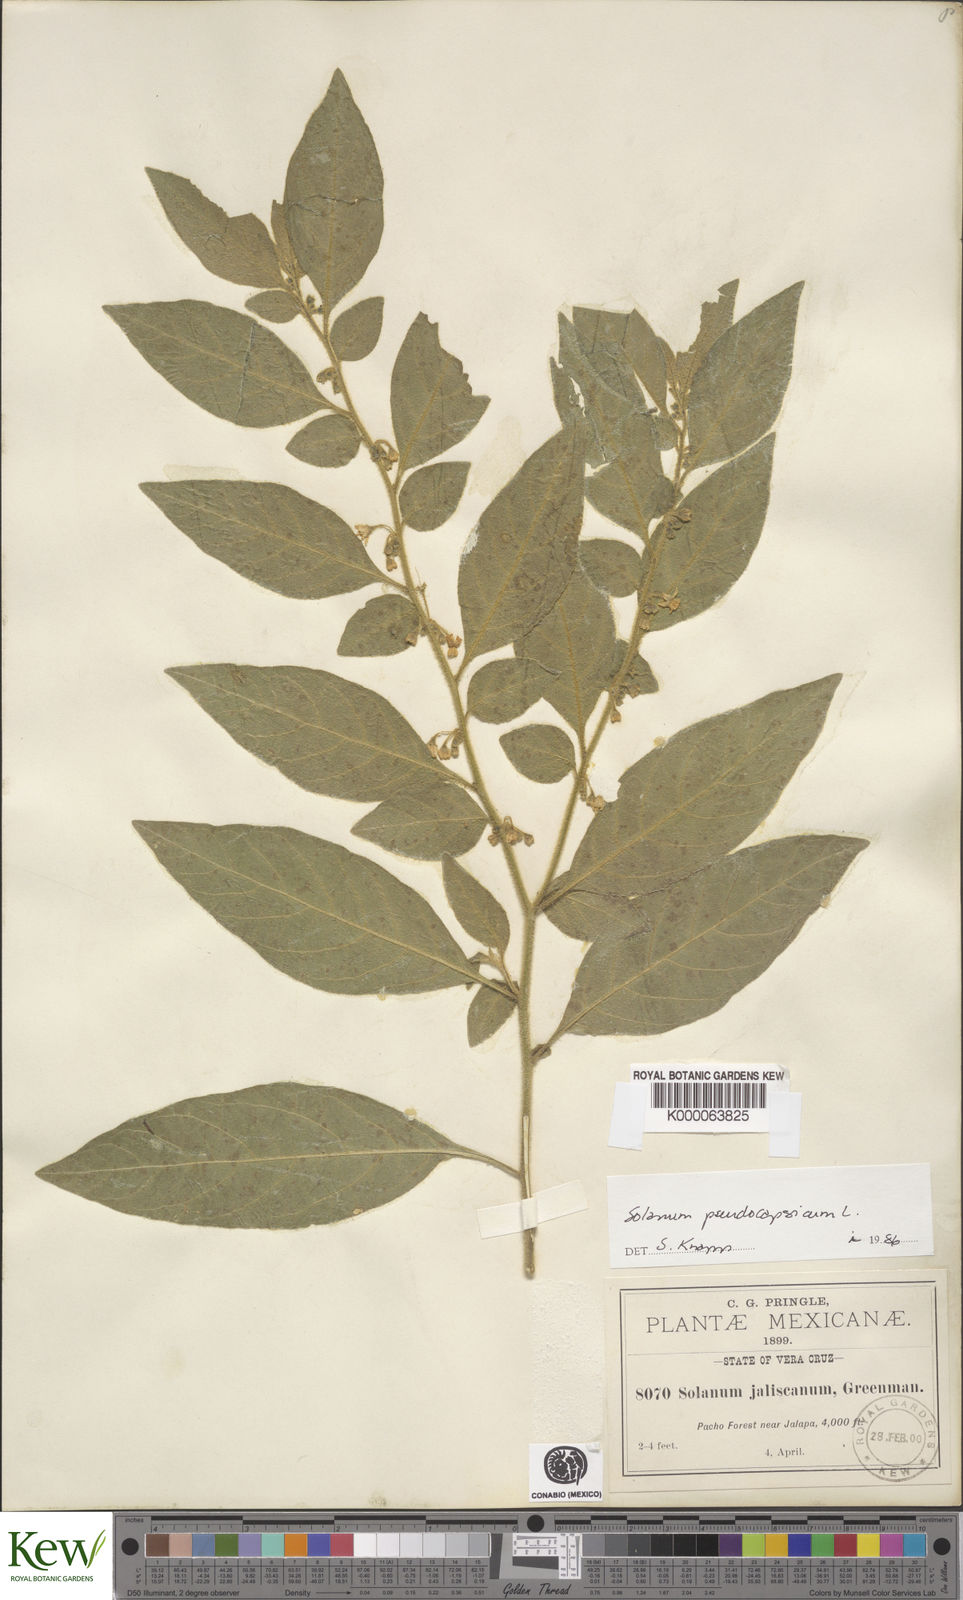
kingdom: Plantae
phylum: Tracheophyta
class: Magnoliopsida
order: Solanales
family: Solanaceae
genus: Solanum
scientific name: Solanum
